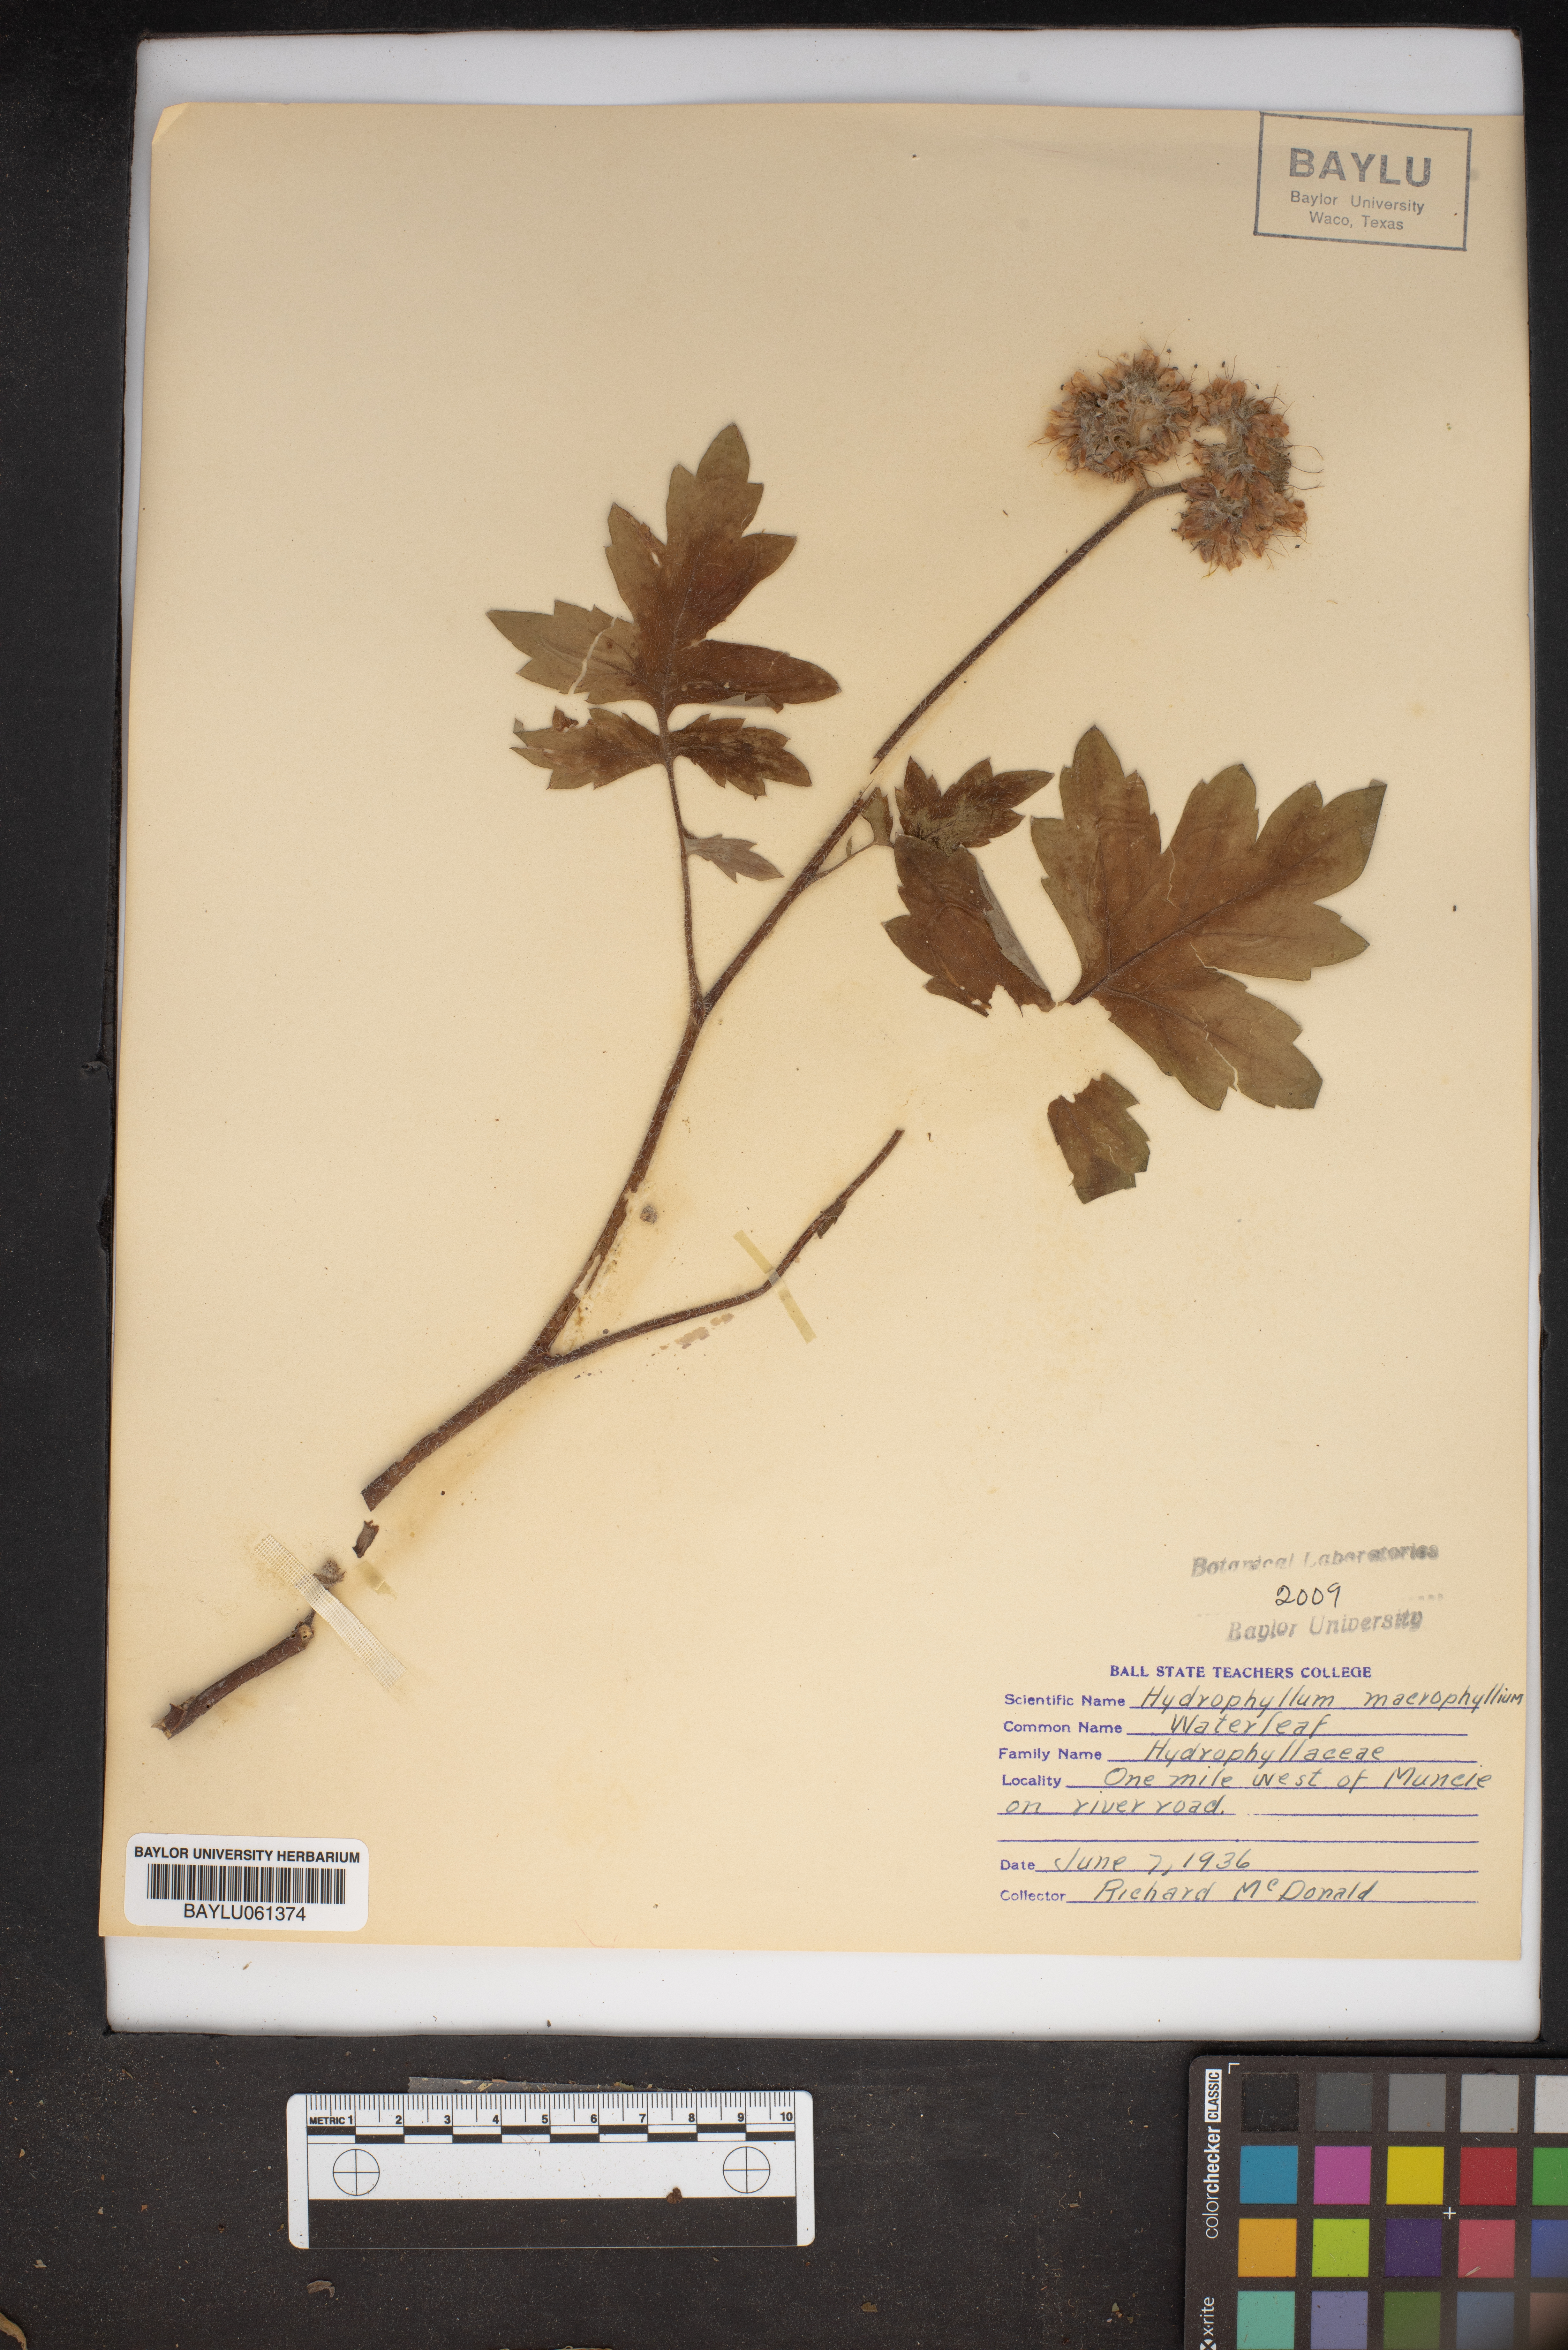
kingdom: Plantae
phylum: Tracheophyta
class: Magnoliopsida
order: Boraginales
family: Hydrophyllaceae
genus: Hydrophyllum
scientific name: Hydrophyllum macrophyllum
